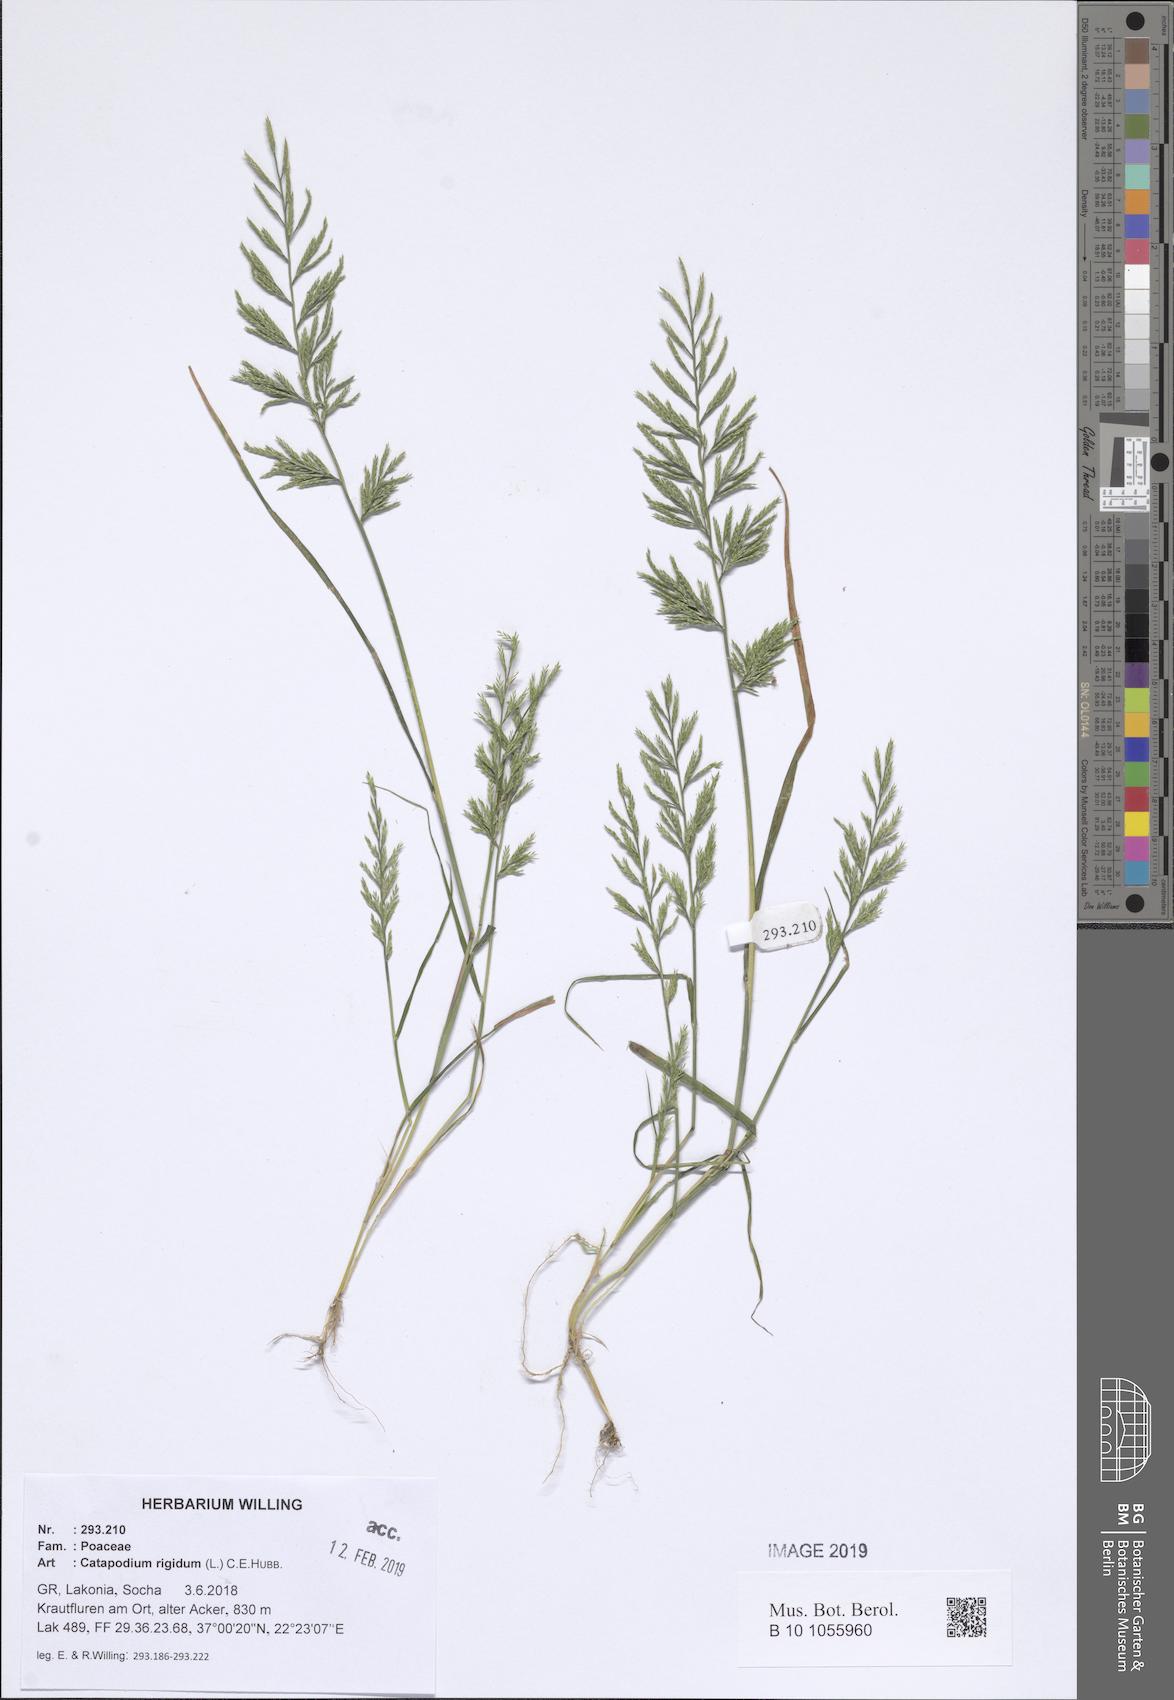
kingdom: Plantae
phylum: Tracheophyta
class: Liliopsida
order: Poales
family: Poaceae
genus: Catapodium
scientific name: Catapodium rigidum
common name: Fern-grass
